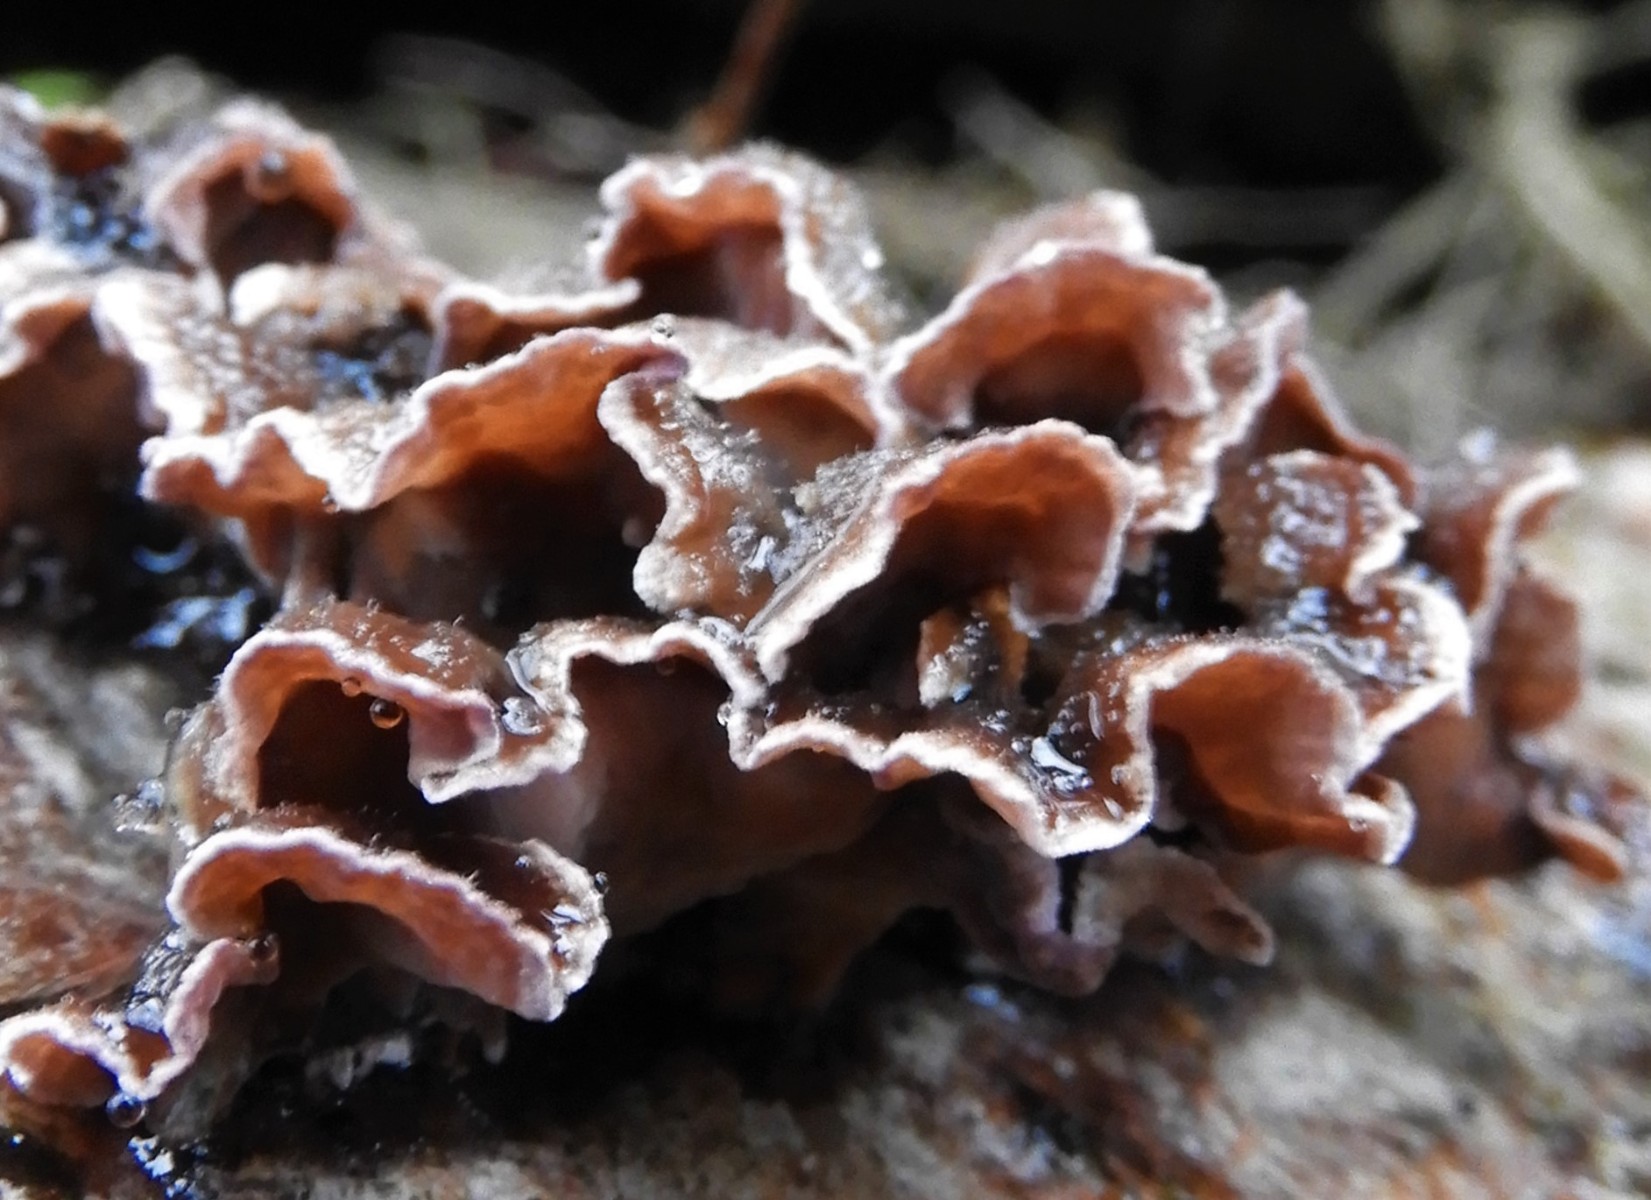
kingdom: Fungi
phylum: Basidiomycota
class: Agaricomycetes
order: Agaricales
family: Cyphellaceae
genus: Chondrostereum
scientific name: Chondrostereum purpureum
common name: purpurlædersvamp
